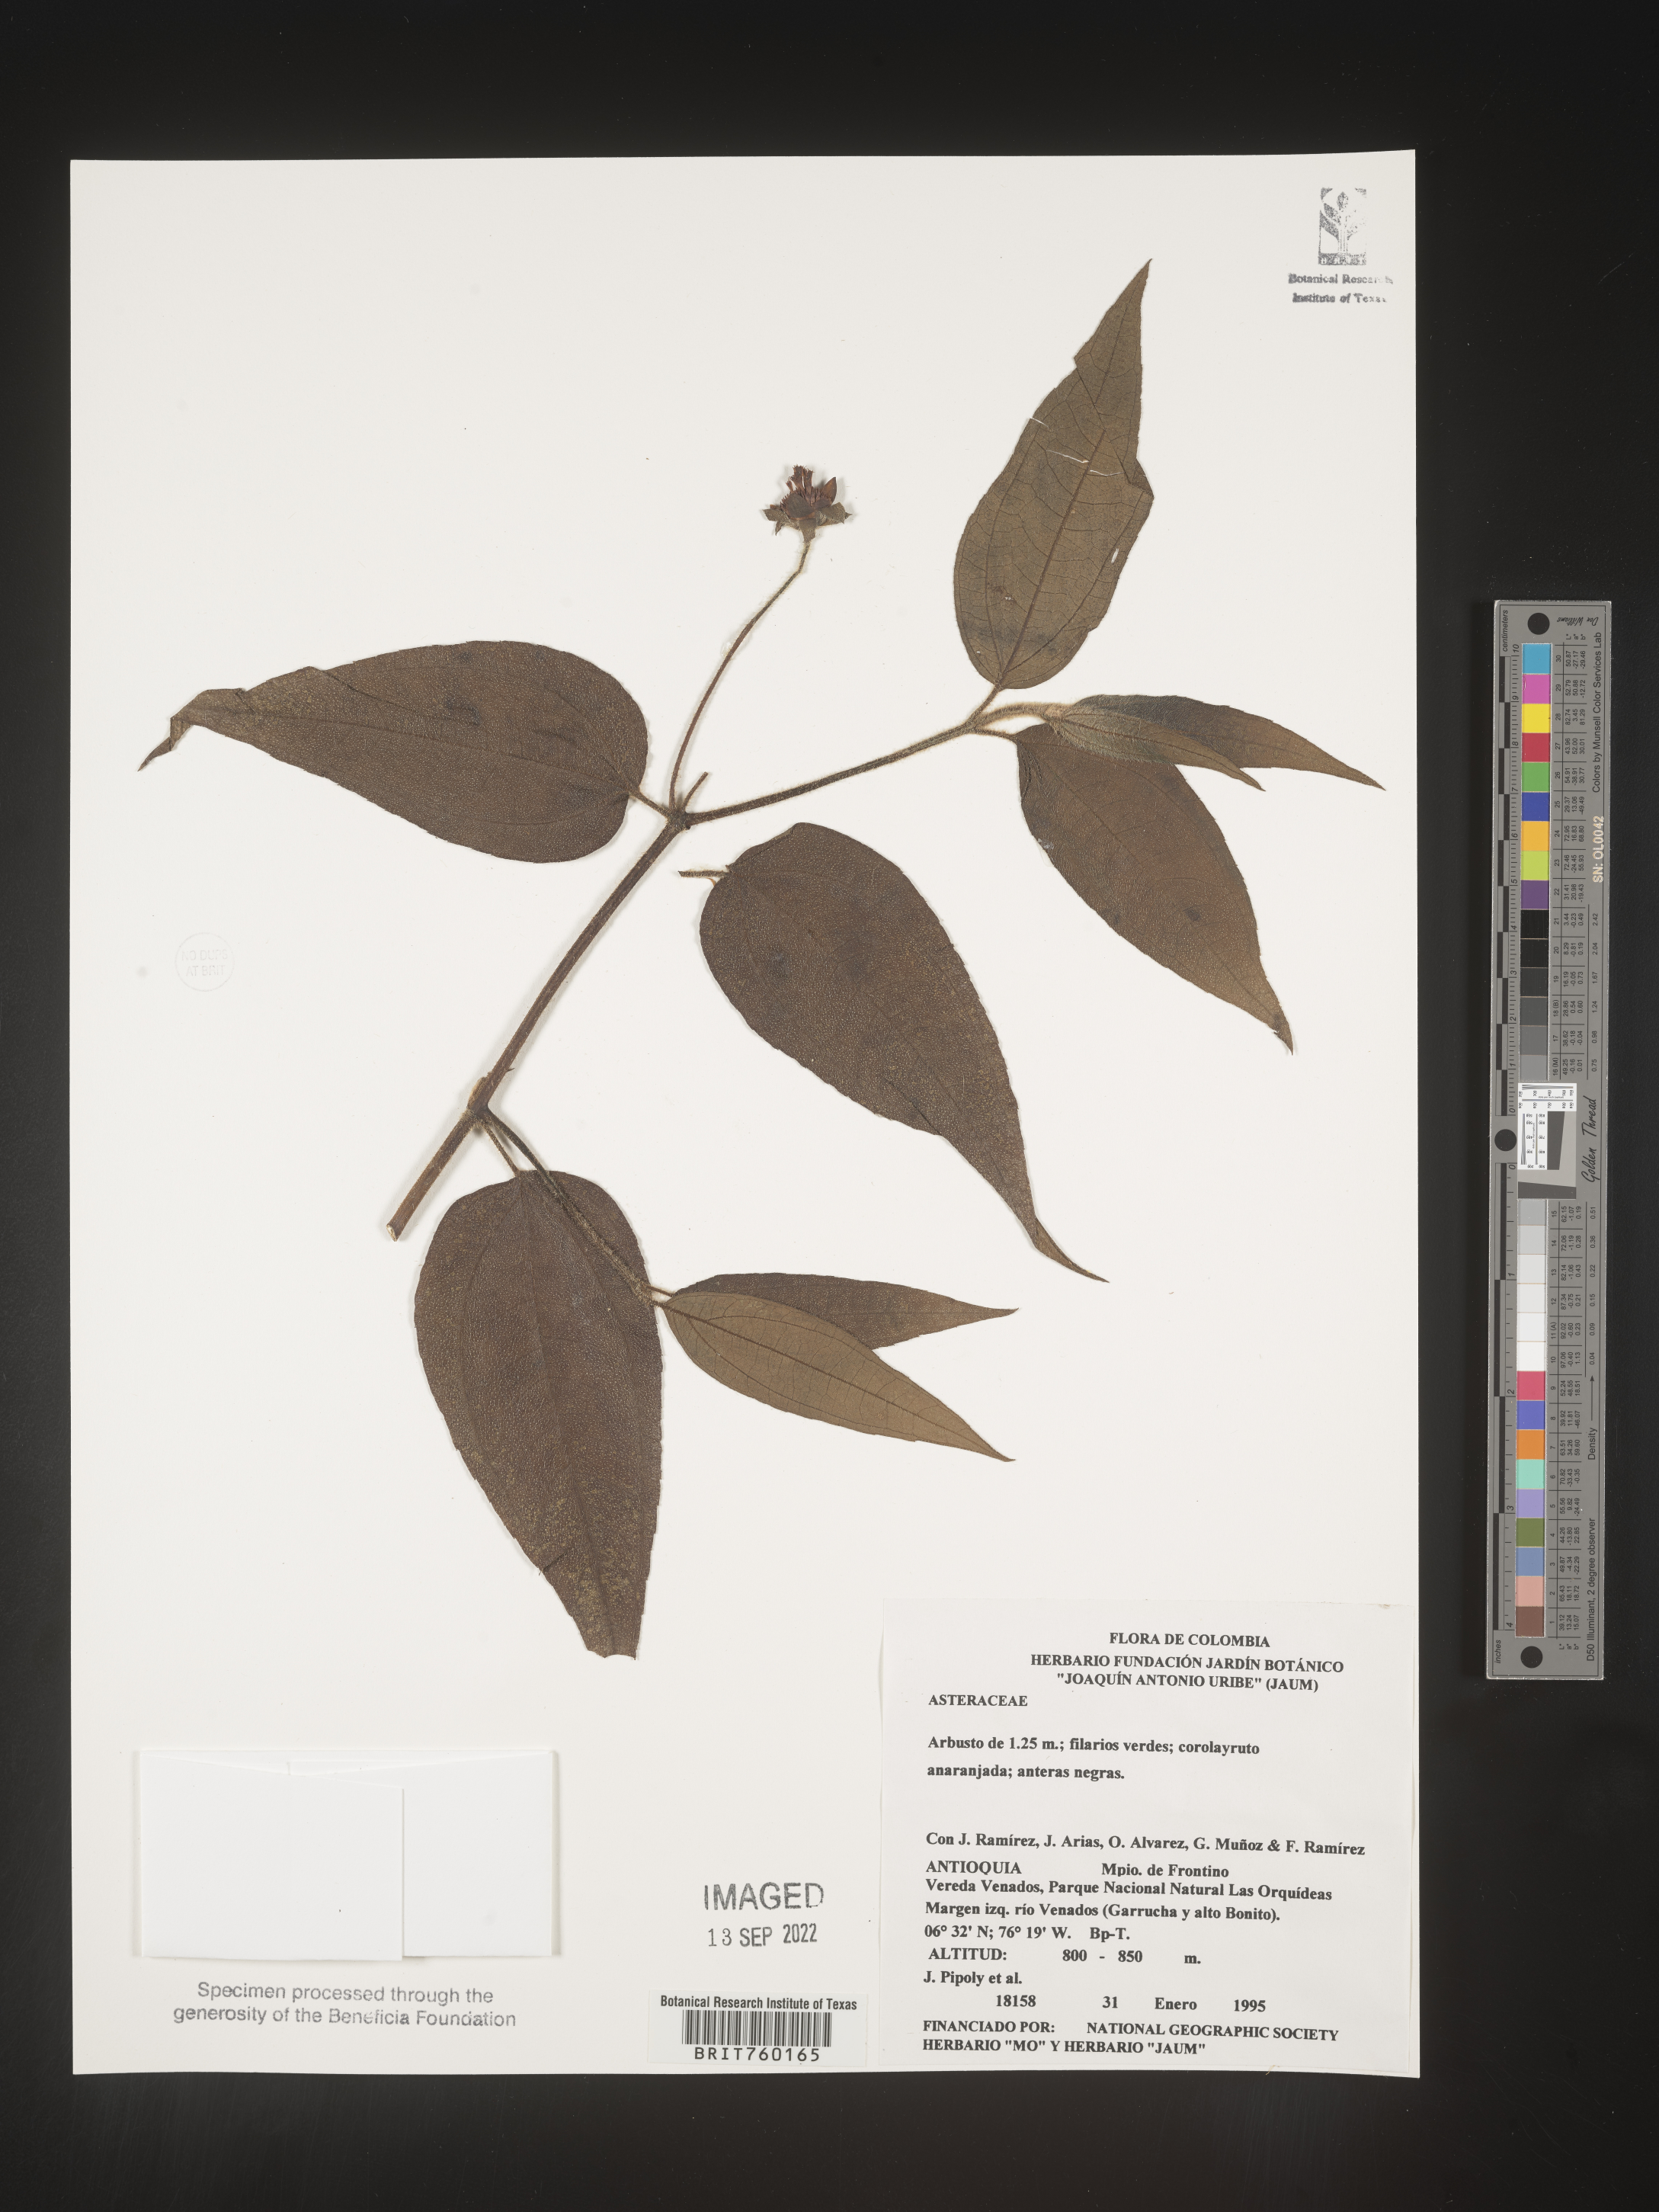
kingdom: Plantae
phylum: Tracheophyta
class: Magnoliopsida
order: Asterales
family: Asteraceae
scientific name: Asteraceae
